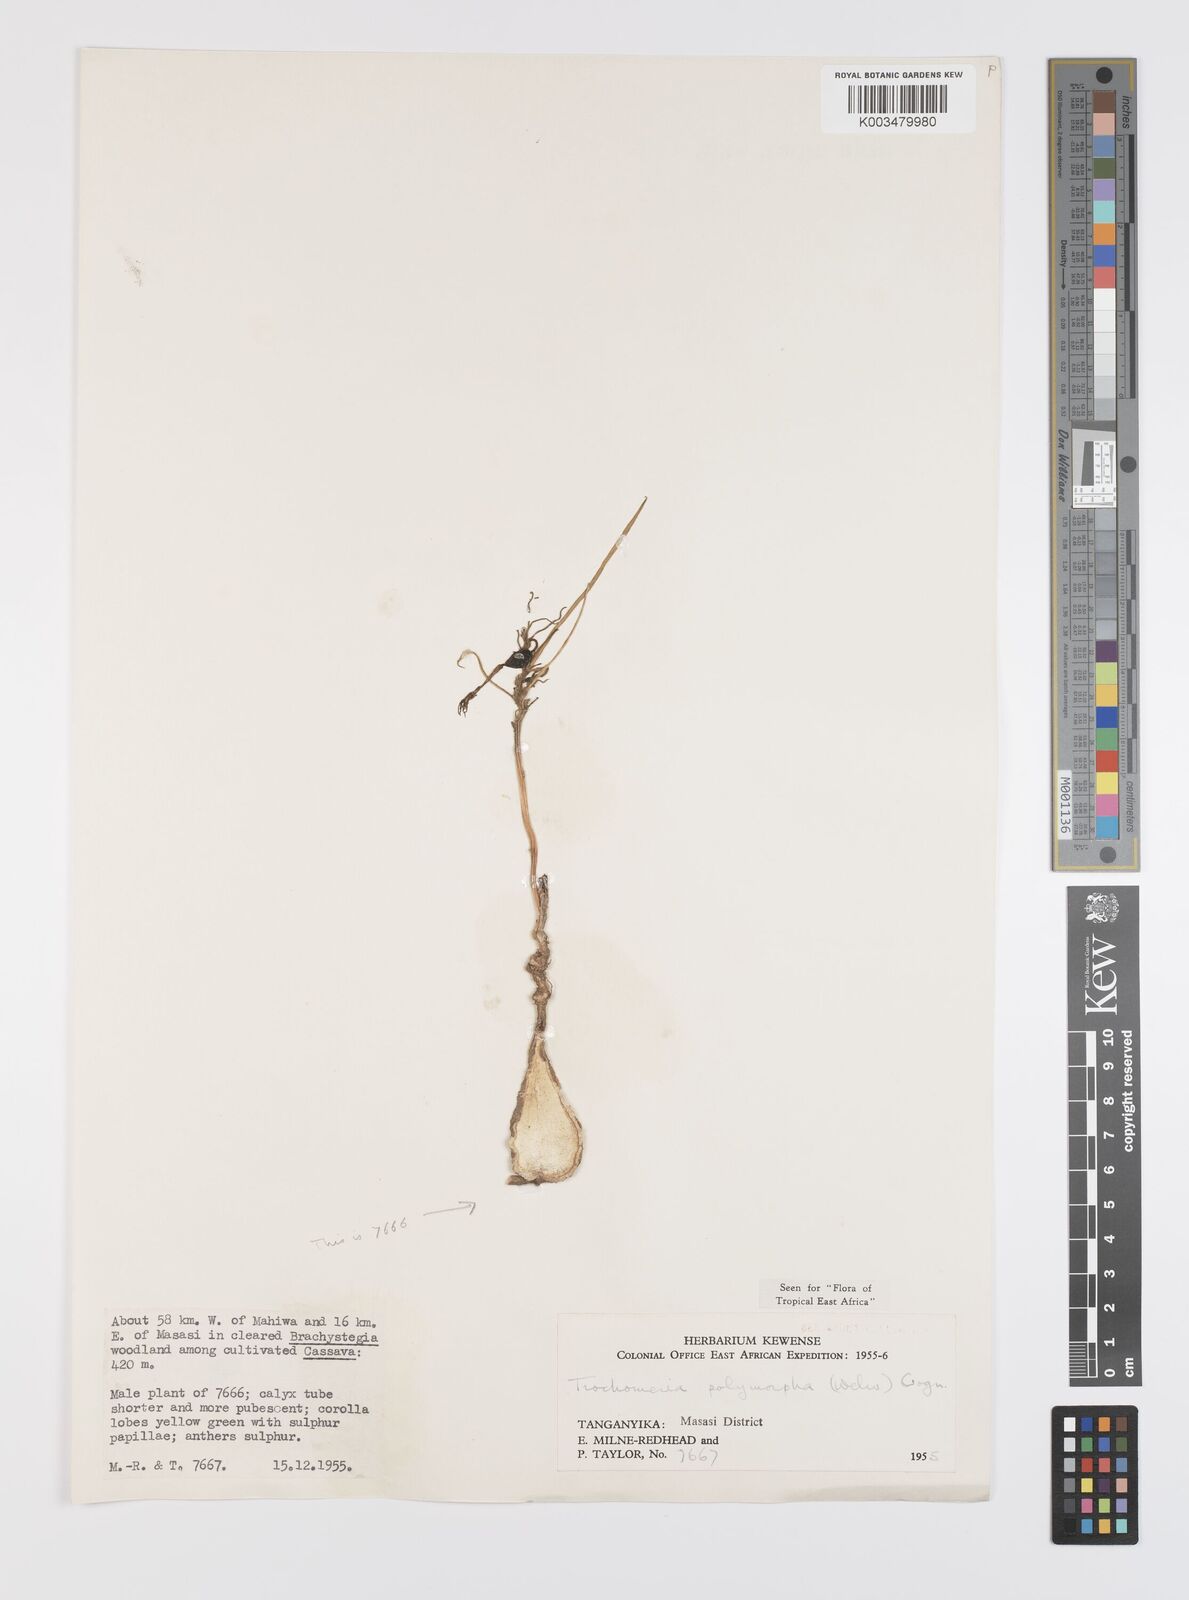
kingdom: Plantae
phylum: Tracheophyta
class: Magnoliopsida
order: Cucurbitales
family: Cucurbitaceae
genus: Trochomeria
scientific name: Trochomeria polymorpha
